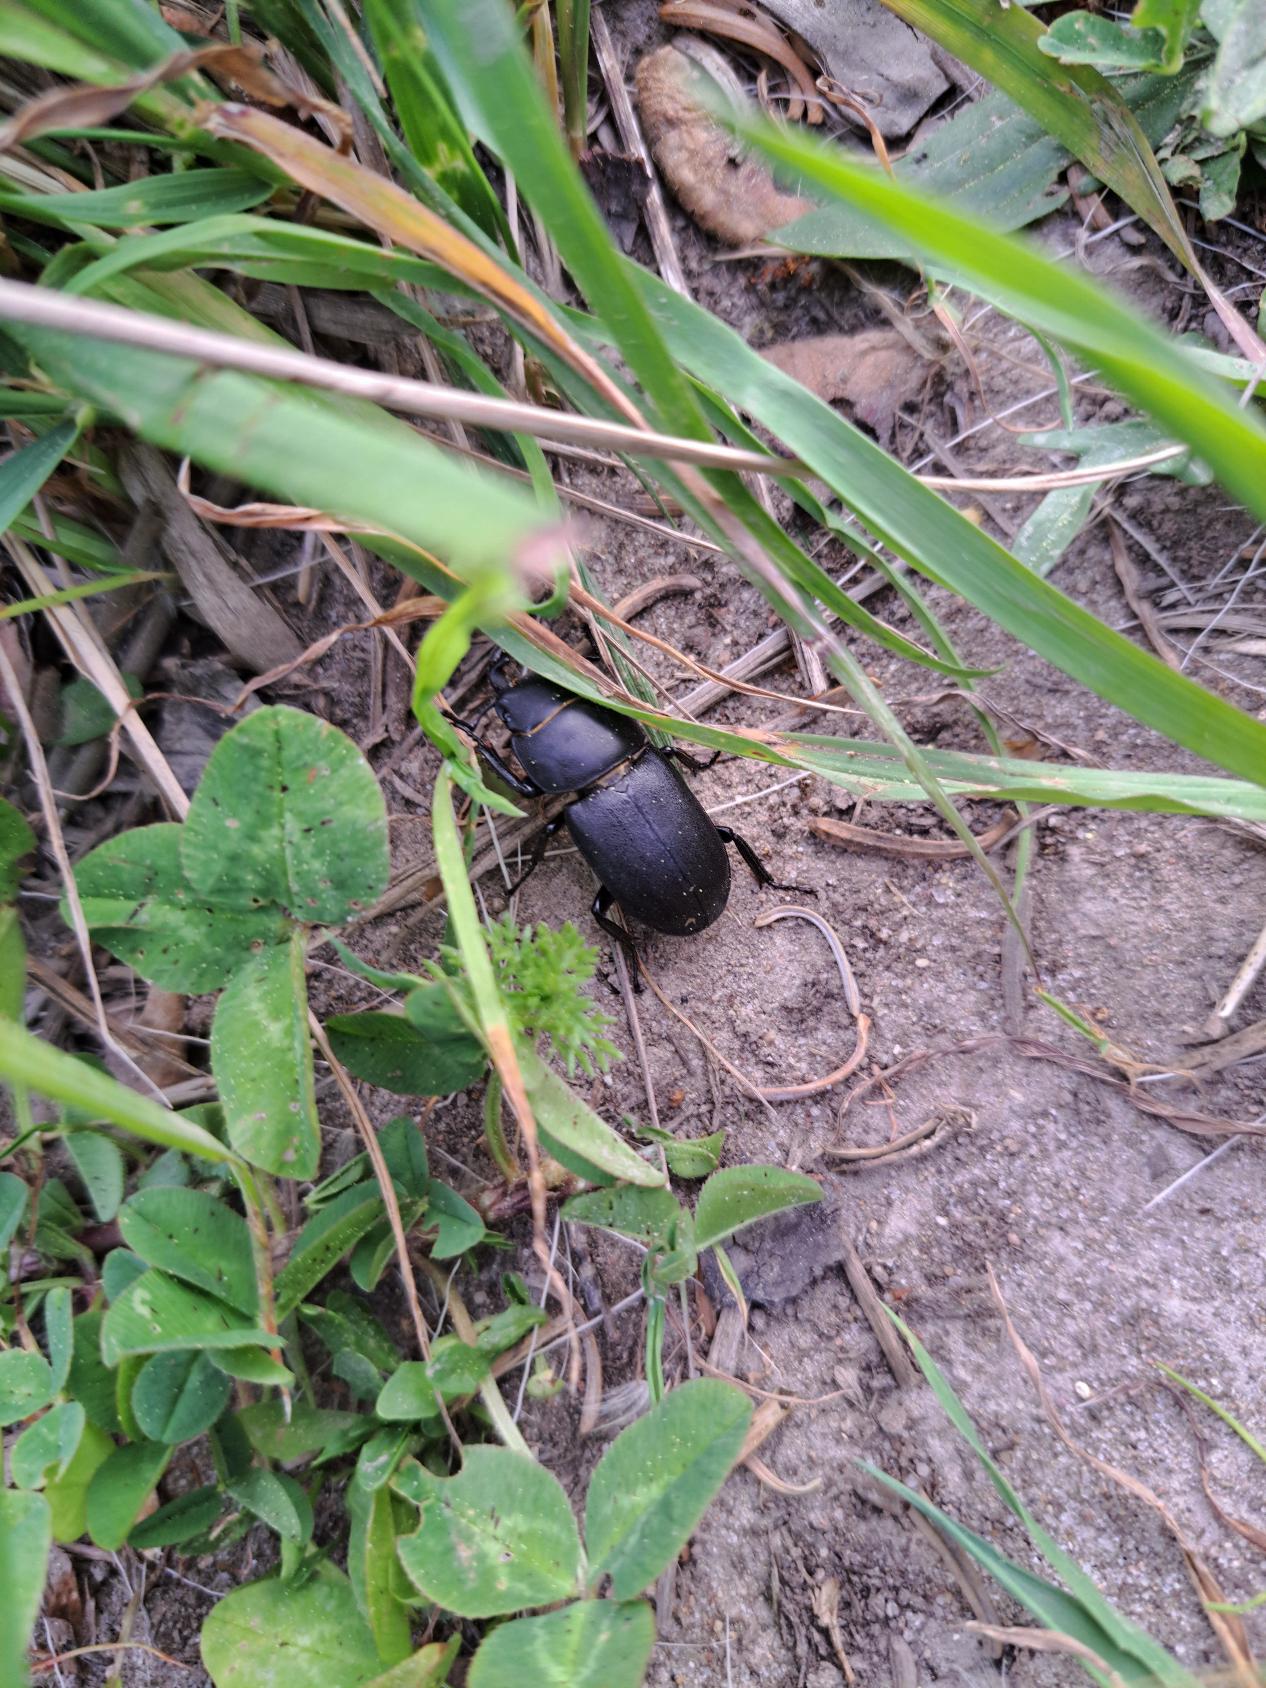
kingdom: Animalia
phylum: Arthropoda
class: Insecta
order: Coleoptera
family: Lucanidae
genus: Dorcus
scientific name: Dorcus parallelipipedus
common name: Bøghjort
